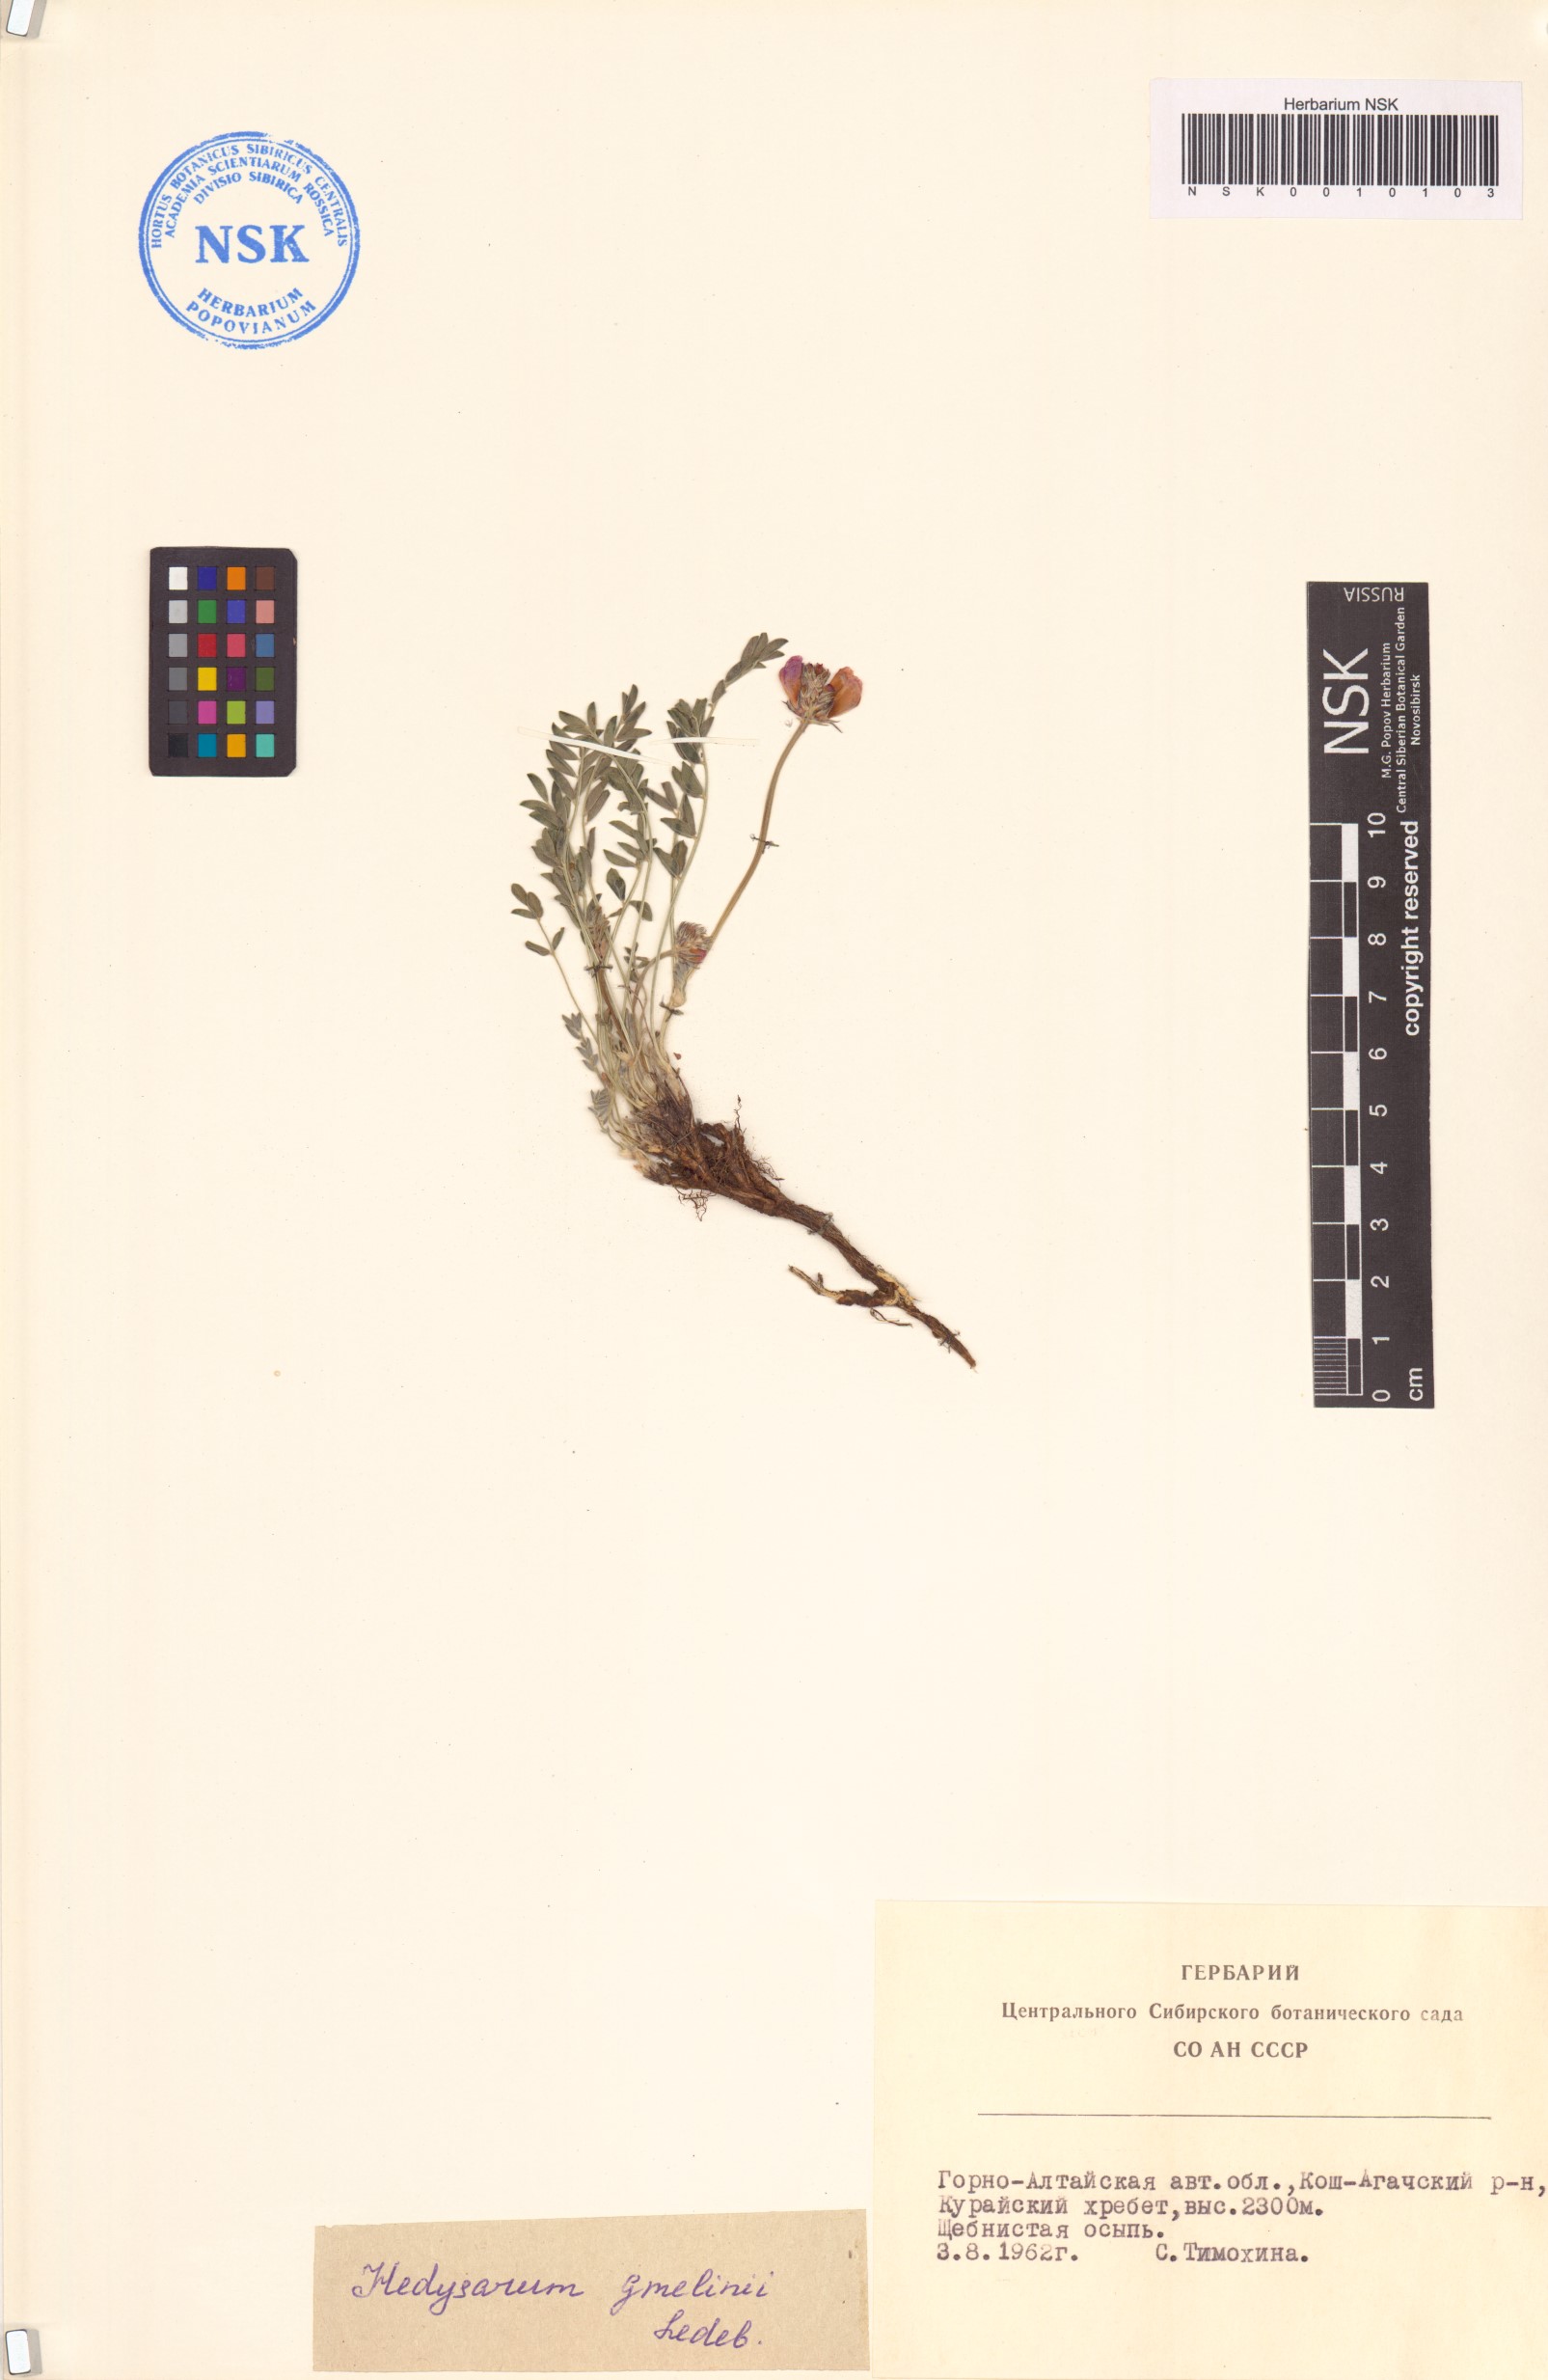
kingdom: Plantae
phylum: Tracheophyta
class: Magnoliopsida
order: Fabales
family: Fabaceae
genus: Hedysarum
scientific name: Hedysarum gmelinii
